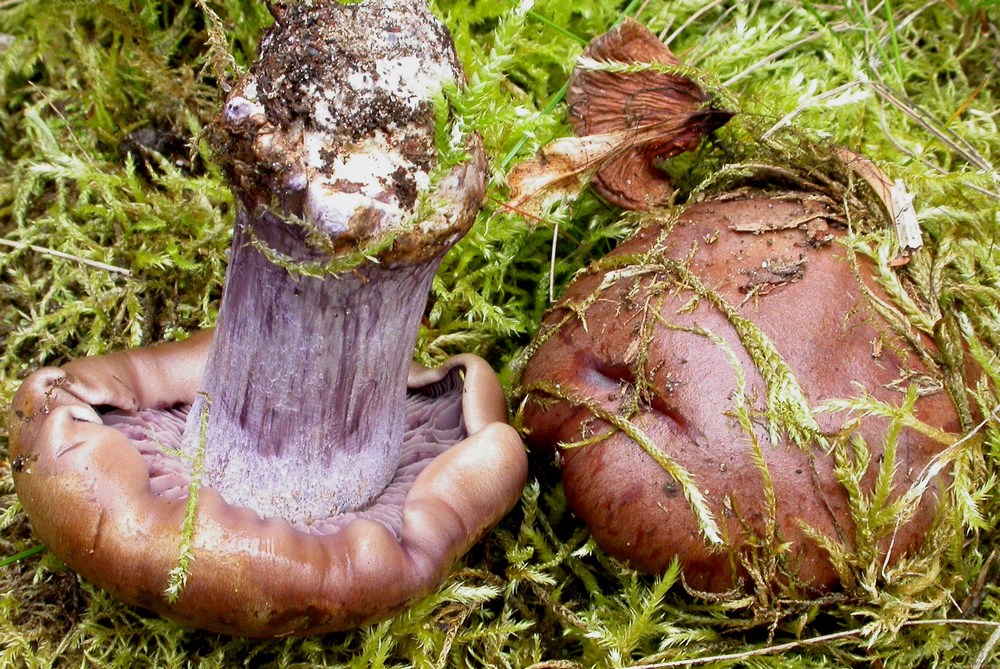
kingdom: Fungi
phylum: Basidiomycota
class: Agaricomycetes
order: Agaricales
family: Cortinariaceae
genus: Thaxterogaster
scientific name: Thaxterogaster purpurascens
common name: purpurbrun slørhat
